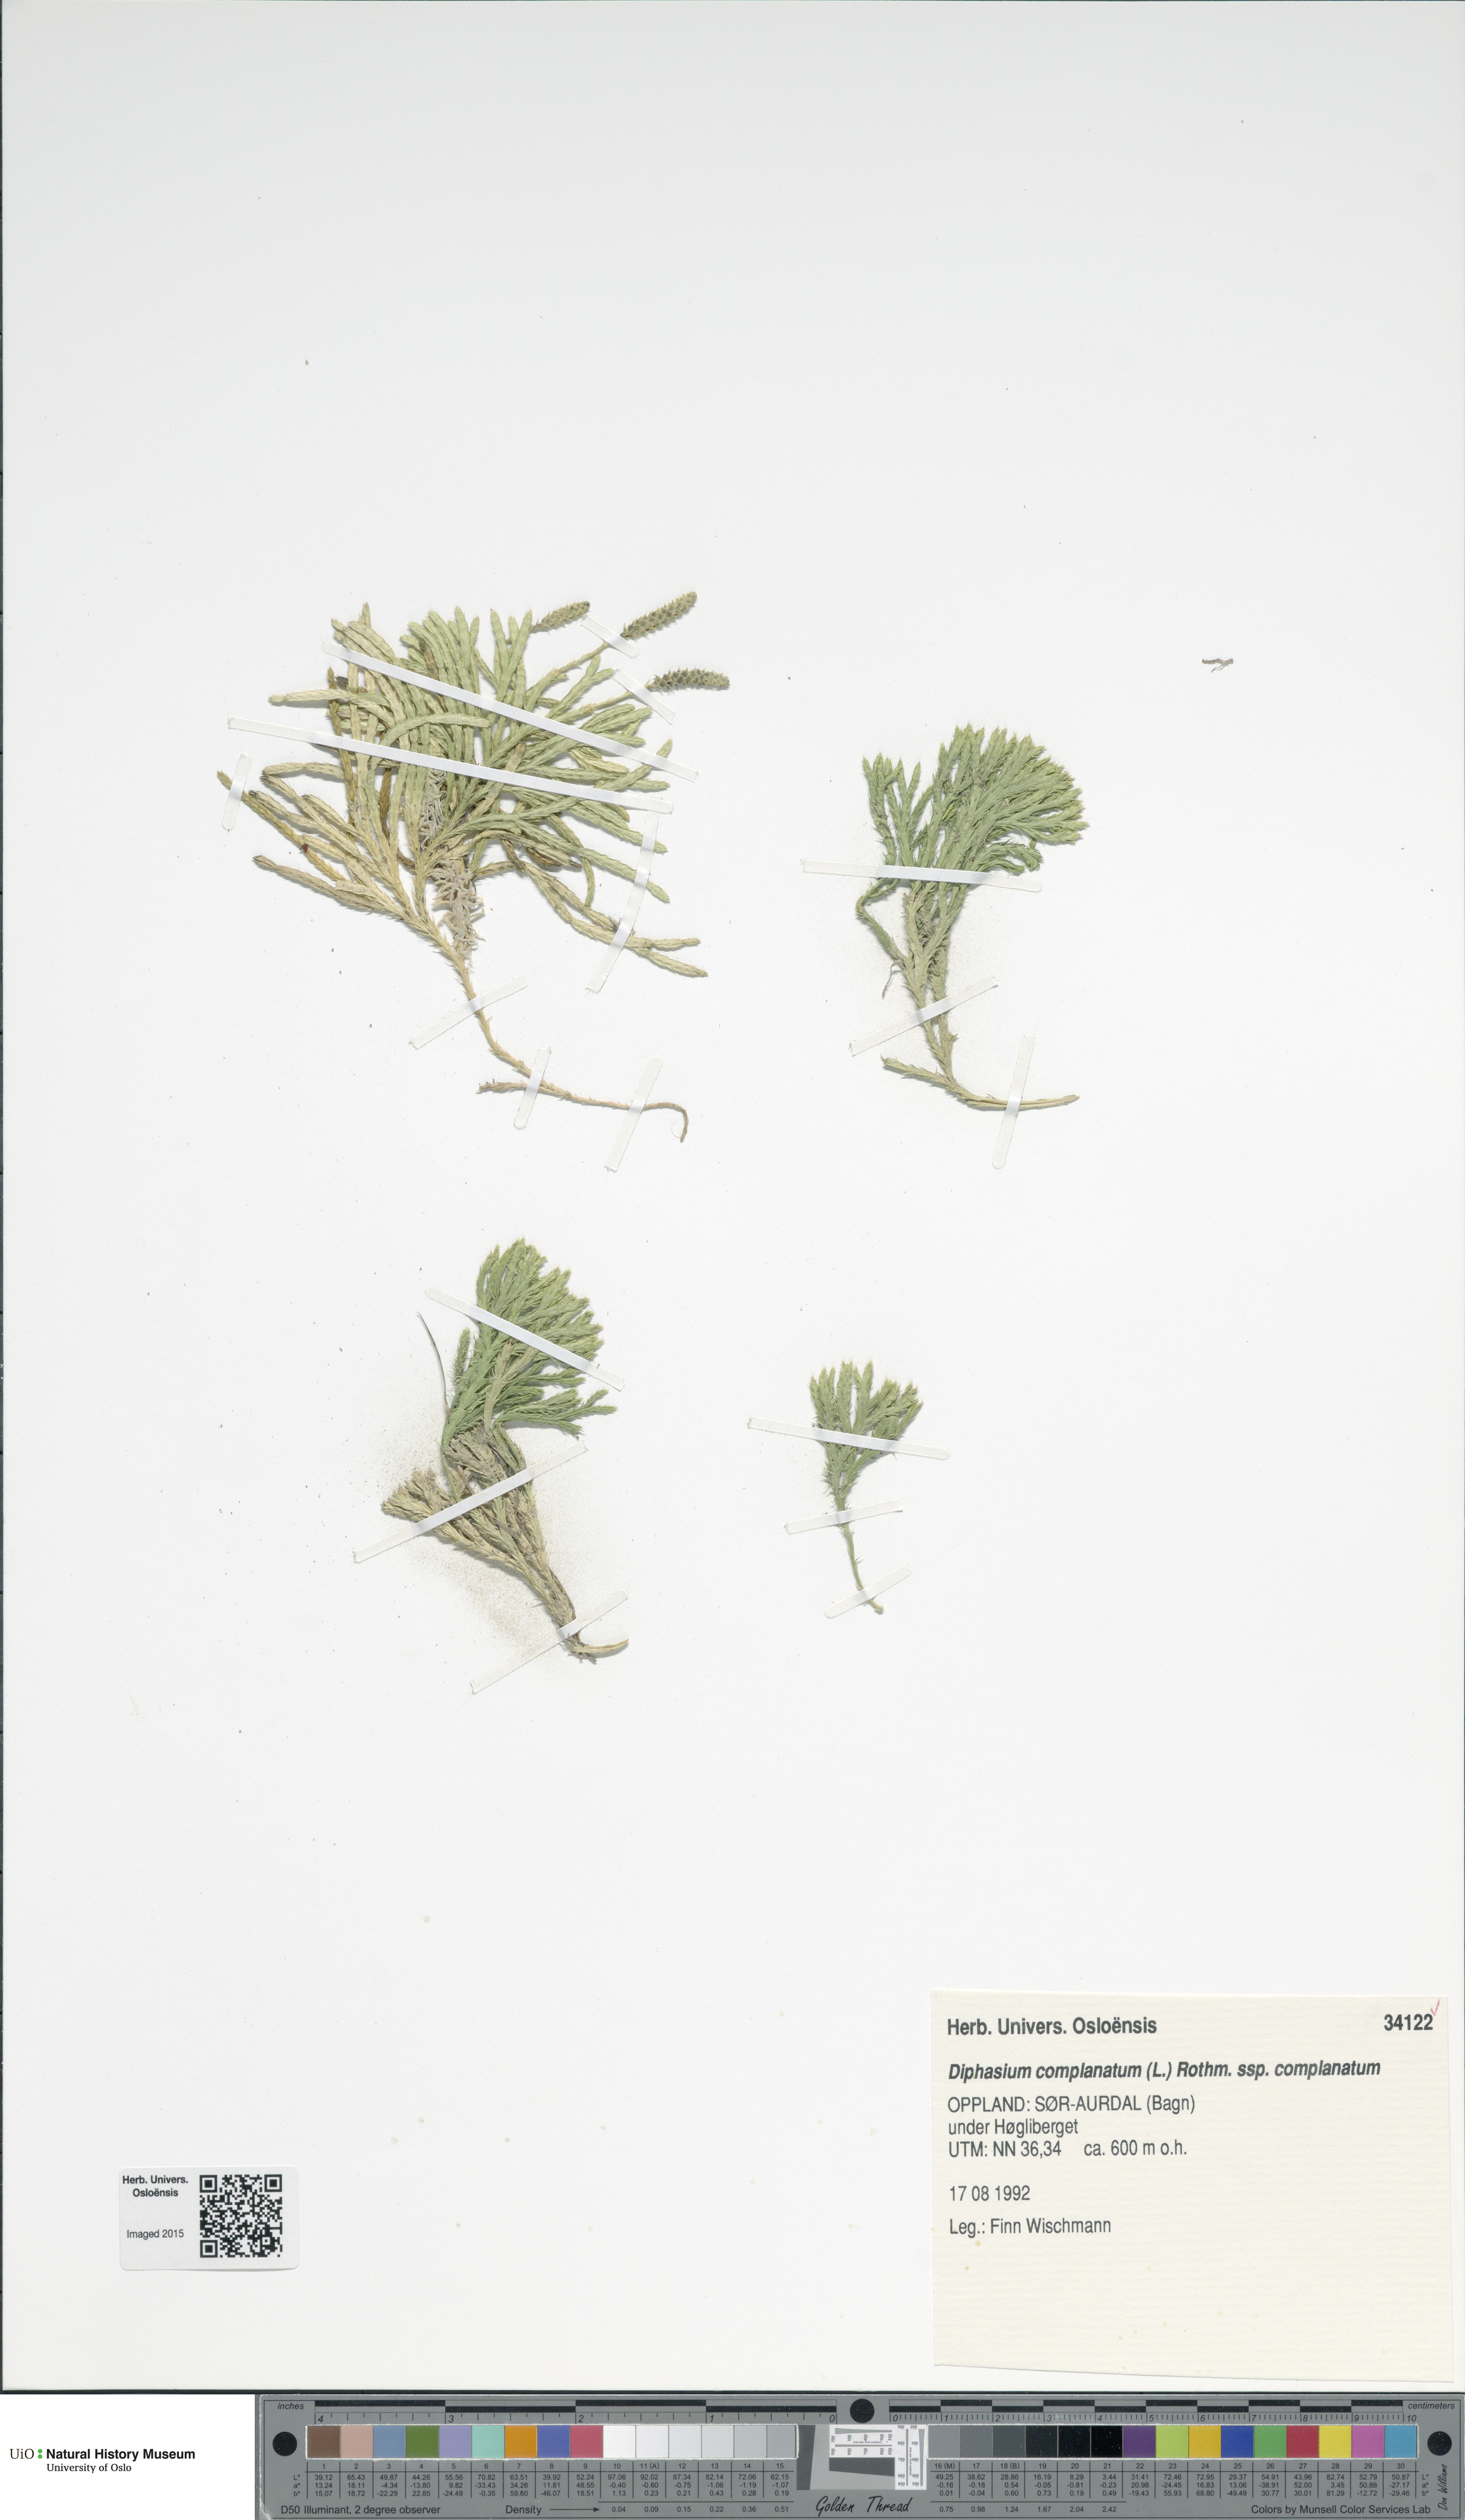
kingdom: Plantae
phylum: Tracheophyta
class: Lycopodiopsida
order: Lycopodiales
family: Lycopodiaceae
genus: Diphasiastrum
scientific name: Diphasiastrum complanatum
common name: Northern running-pine
